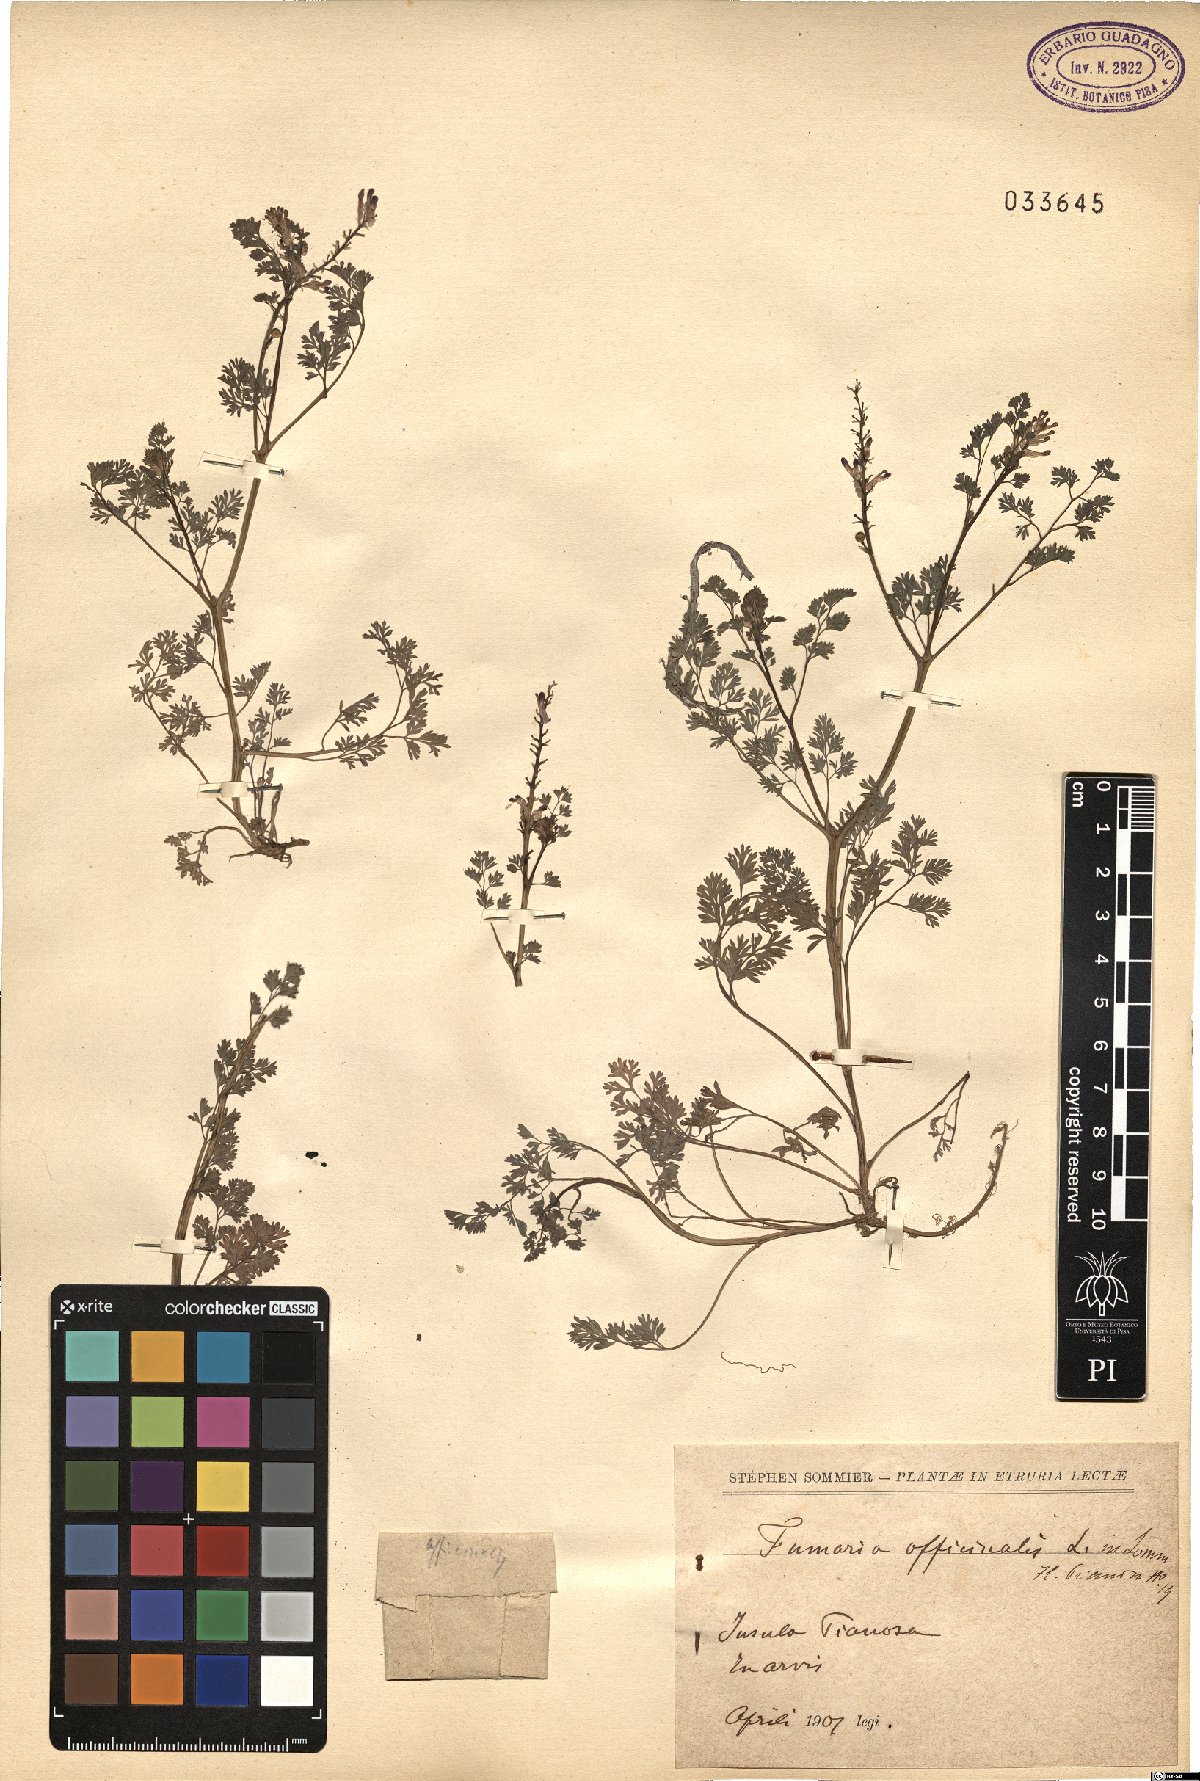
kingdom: Plantae
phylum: Tracheophyta
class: Magnoliopsida
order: Ranunculales
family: Papaveraceae
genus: Fumaria
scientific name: Fumaria officinalis
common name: Common fumitory
